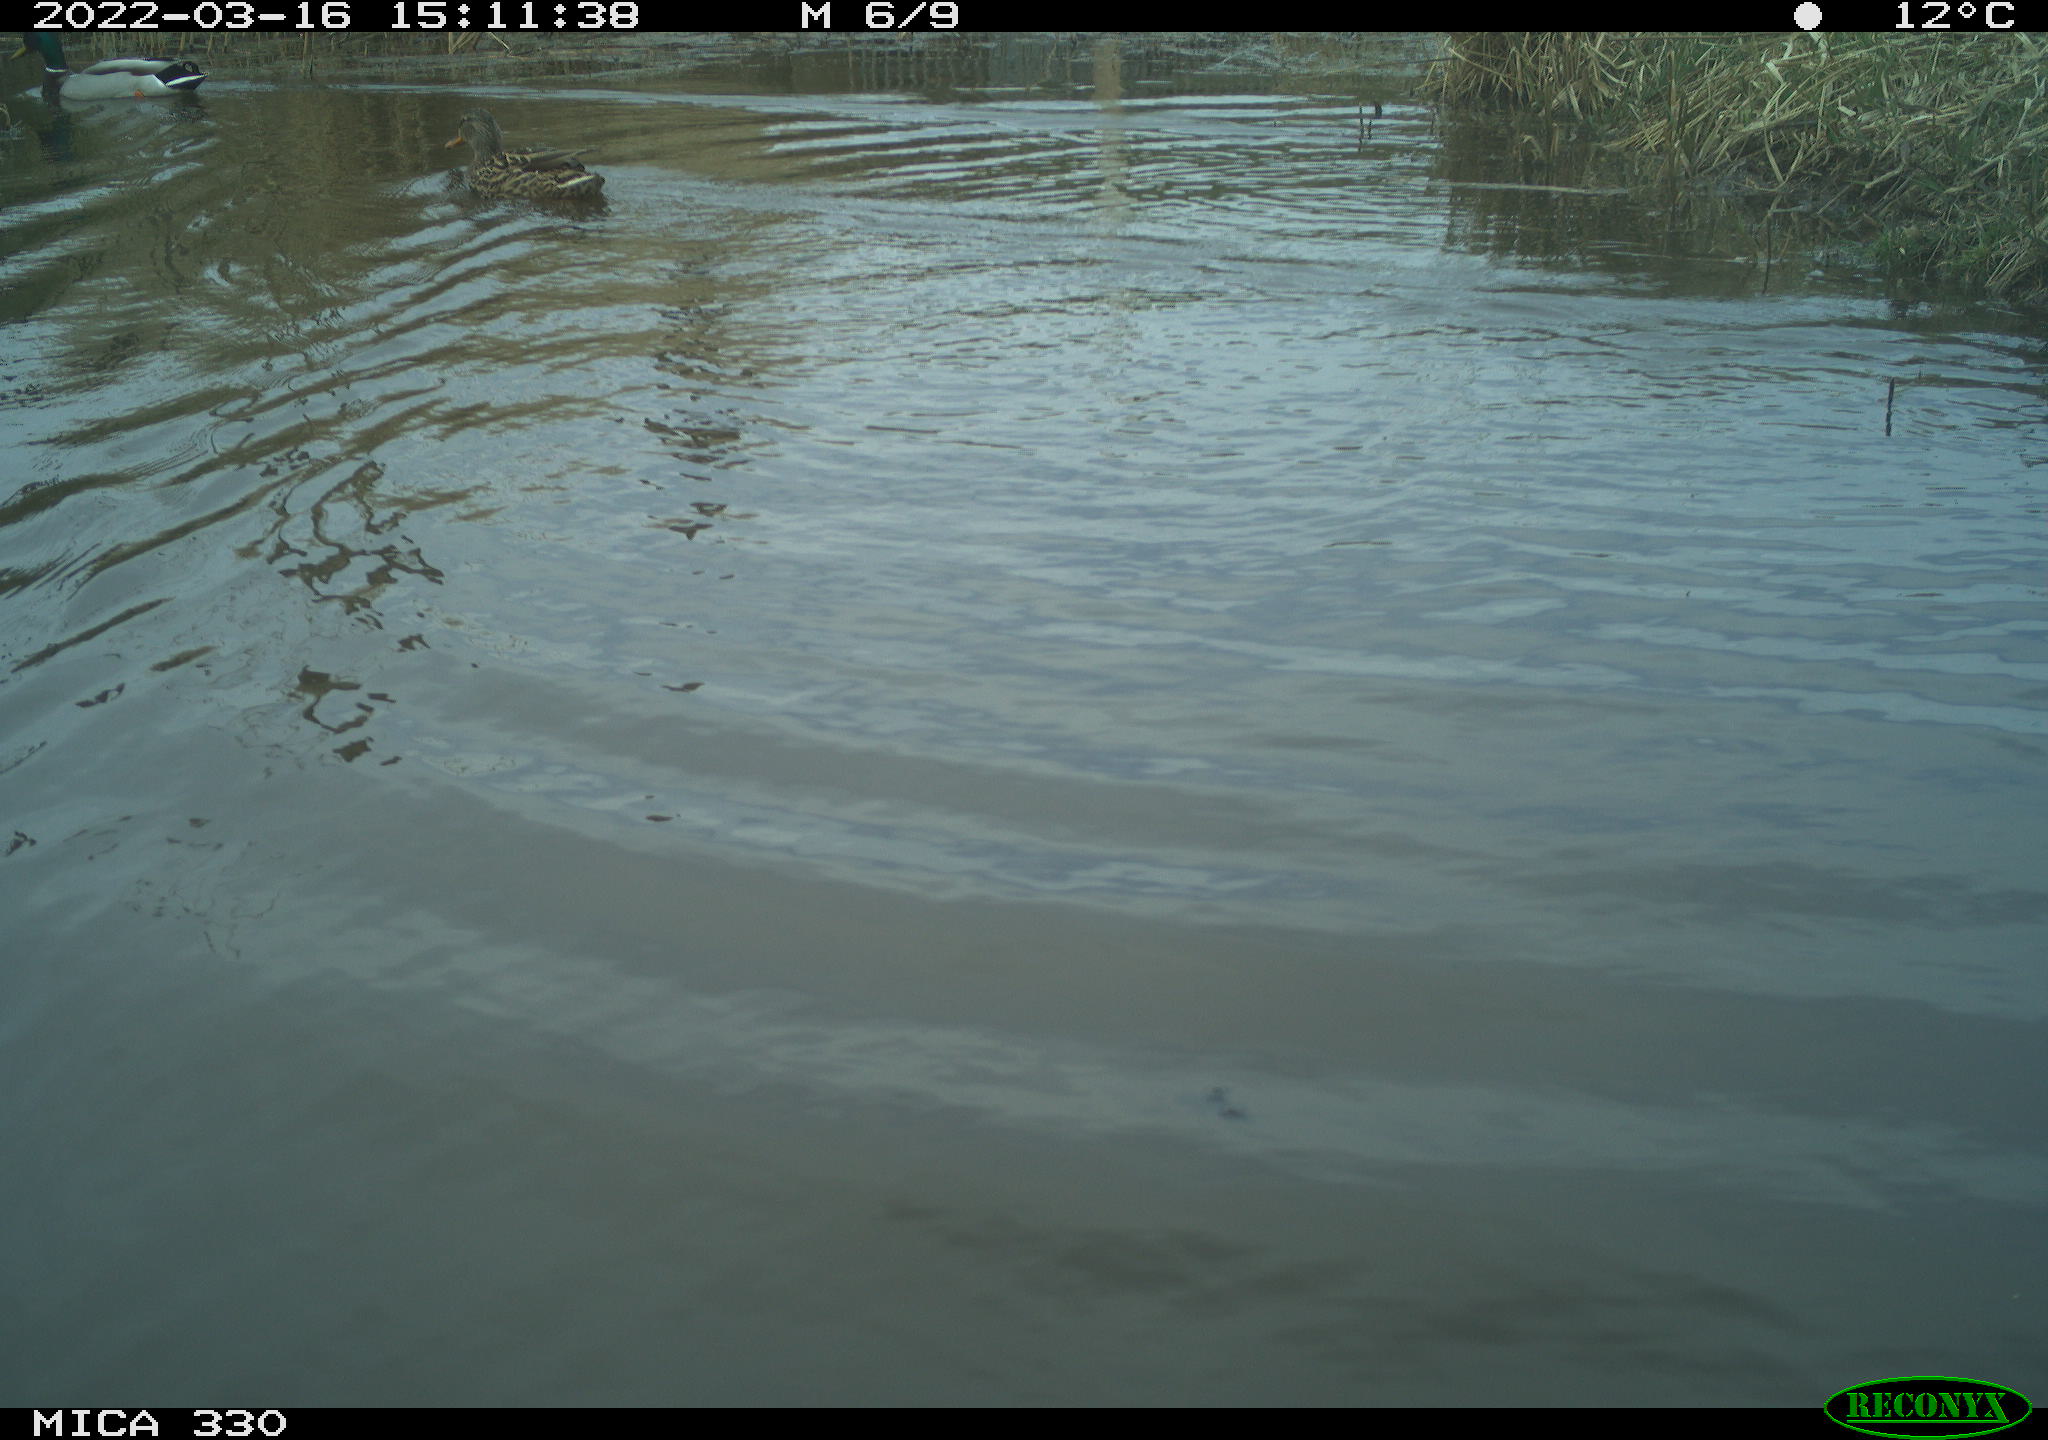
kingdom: Animalia
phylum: Chordata
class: Aves
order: Anseriformes
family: Anatidae
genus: Anas
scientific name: Anas platyrhynchos
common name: Mallard
